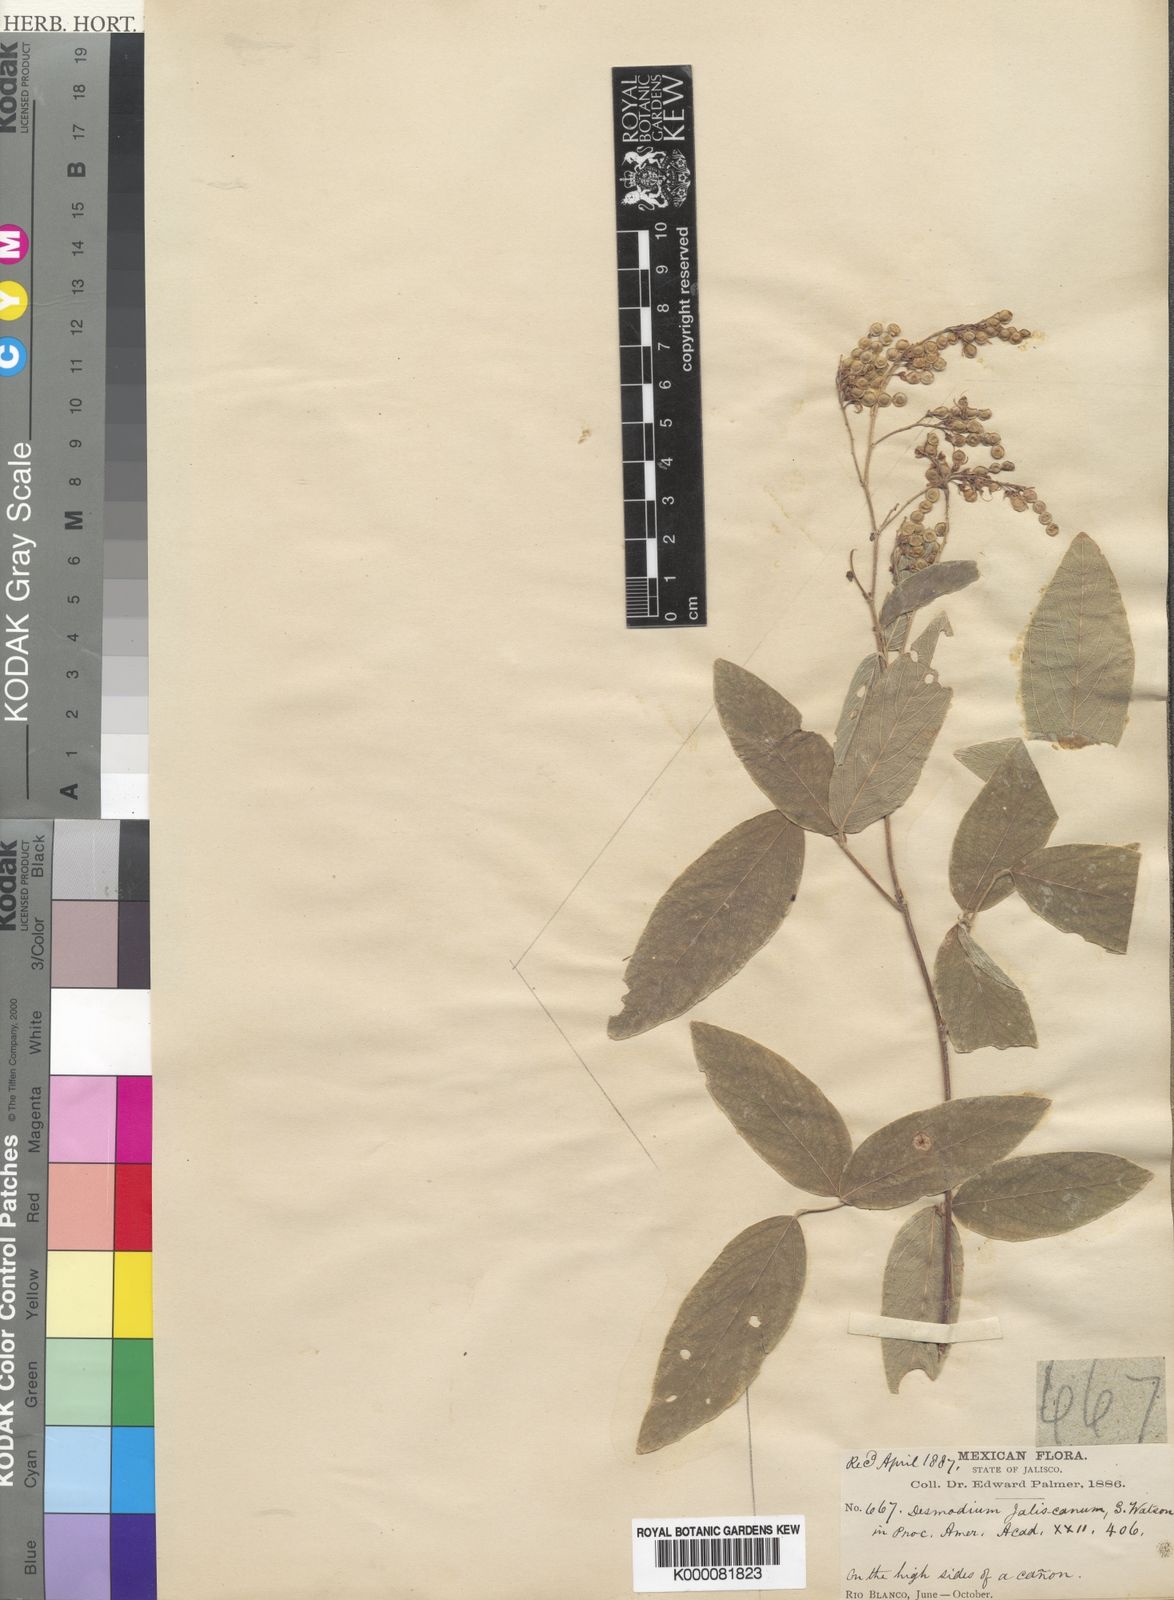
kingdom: Plantae
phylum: Tracheophyta
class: Magnoliopsida
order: Fabales
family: Fabaceae
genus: Desmodium
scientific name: Desmodium jaliscanum
